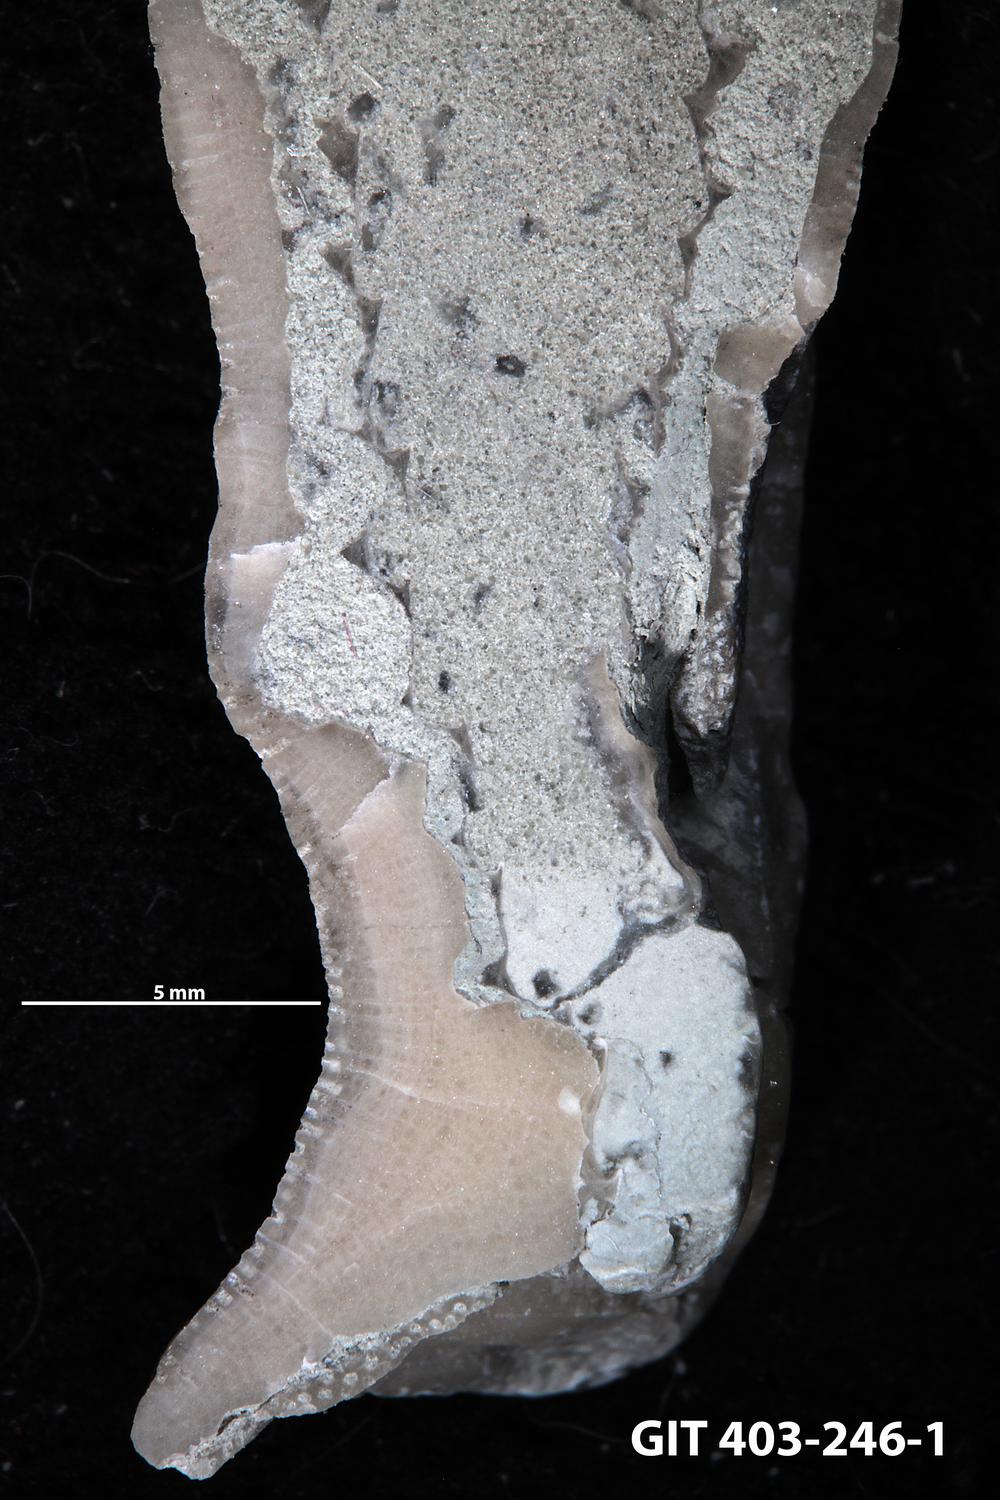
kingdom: Animalia
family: Cornulitidae
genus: Cornulites
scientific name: Cornulites
